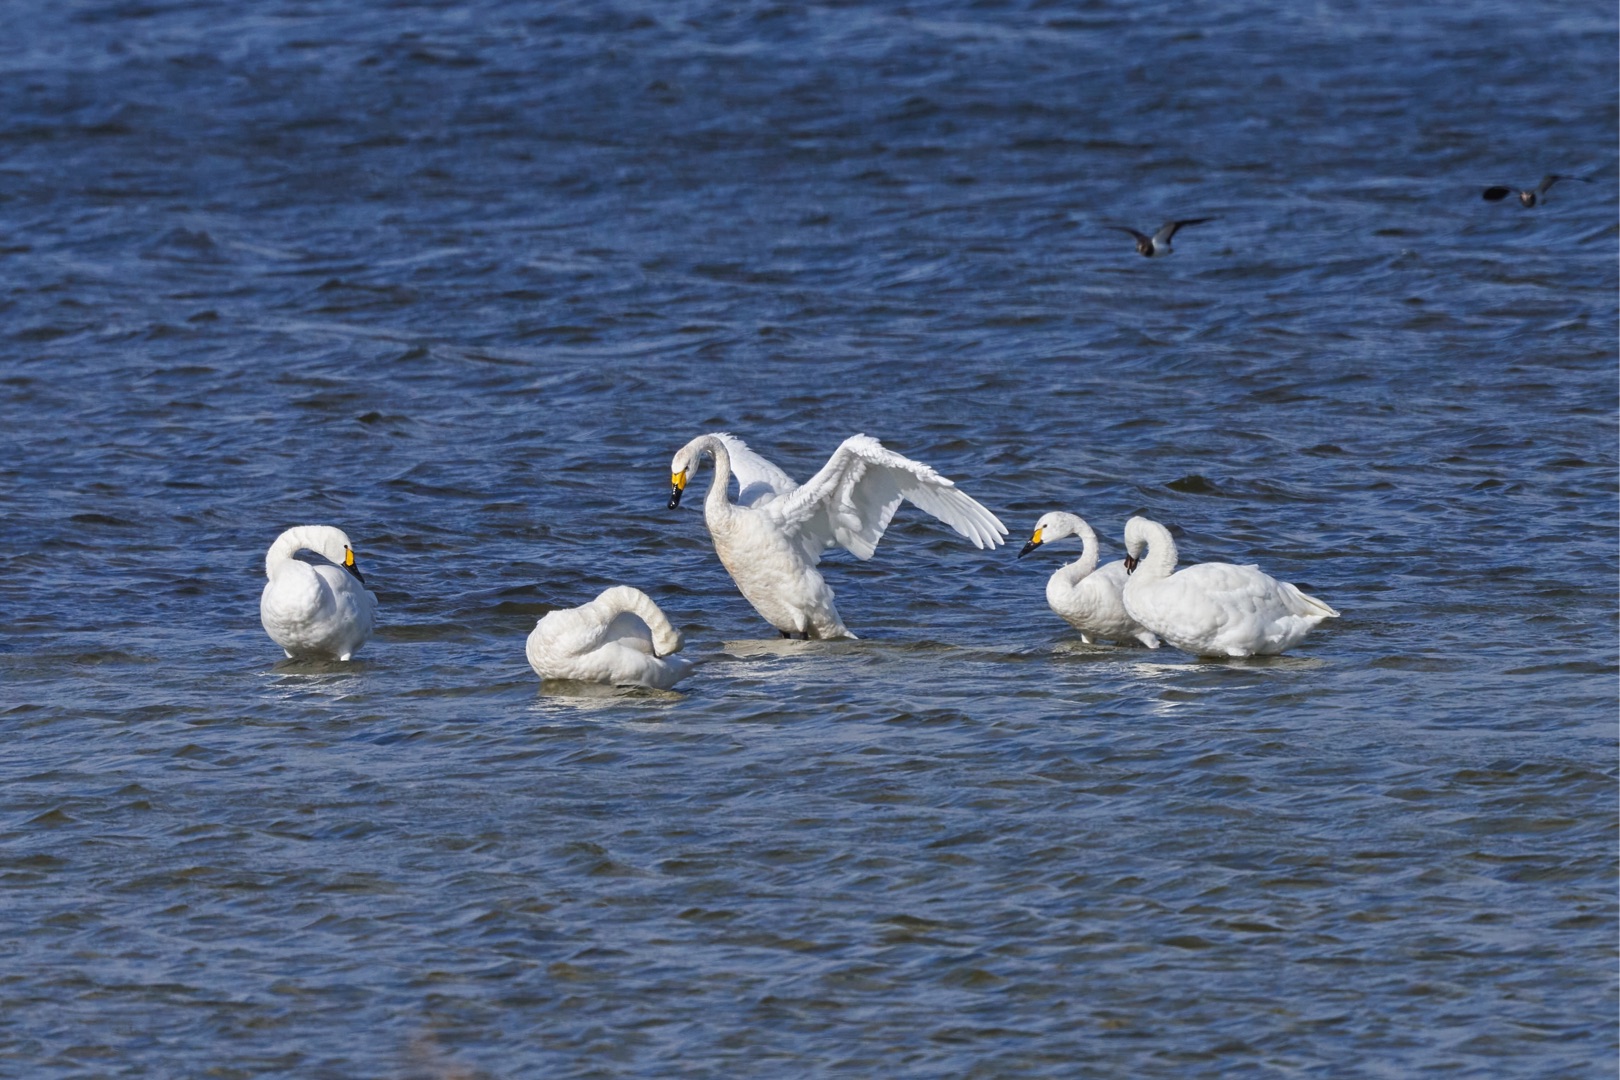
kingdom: Animalia
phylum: Chordata
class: Aves
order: Anseriformes
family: Anatidae
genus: Cygnus
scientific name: Cygnus columbianus
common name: Pibesvane
